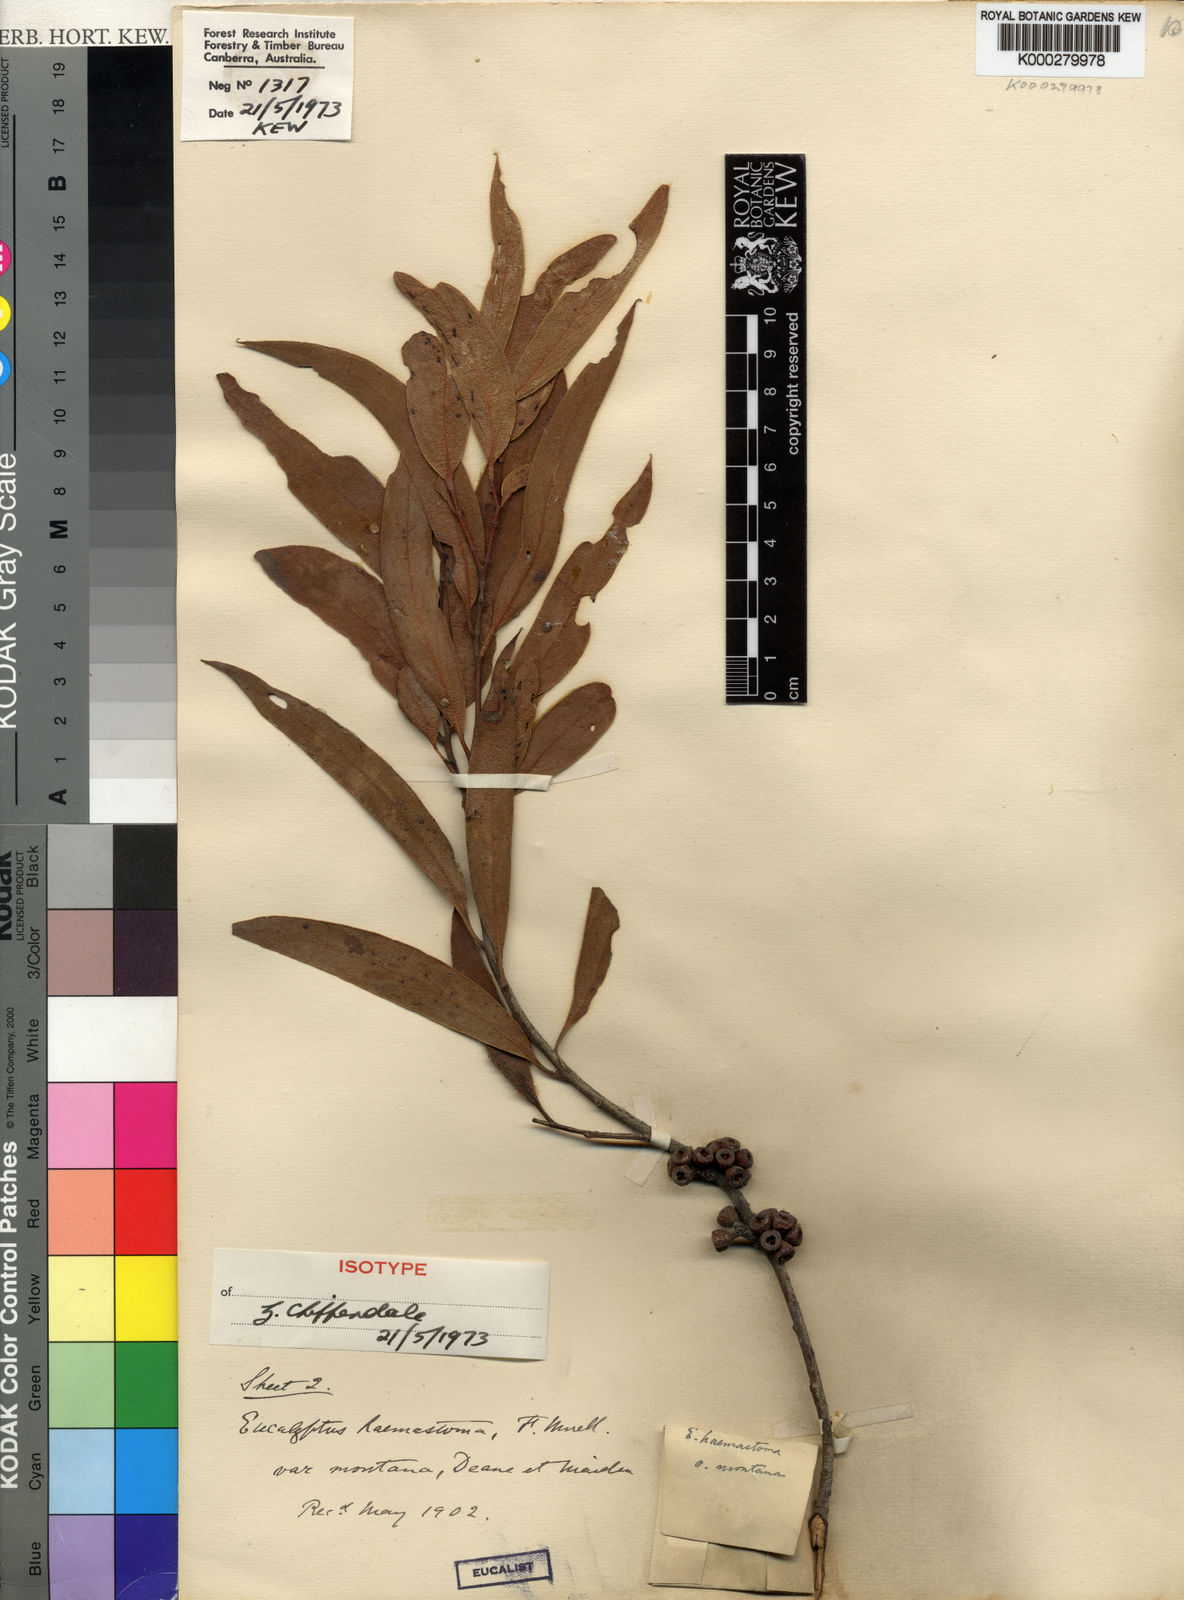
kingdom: Plantae
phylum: Tracheophyta
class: Magnoliopsida
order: Myrtales
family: Myrtaceae
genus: Eucalyptus
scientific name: Eucalyptus montana
